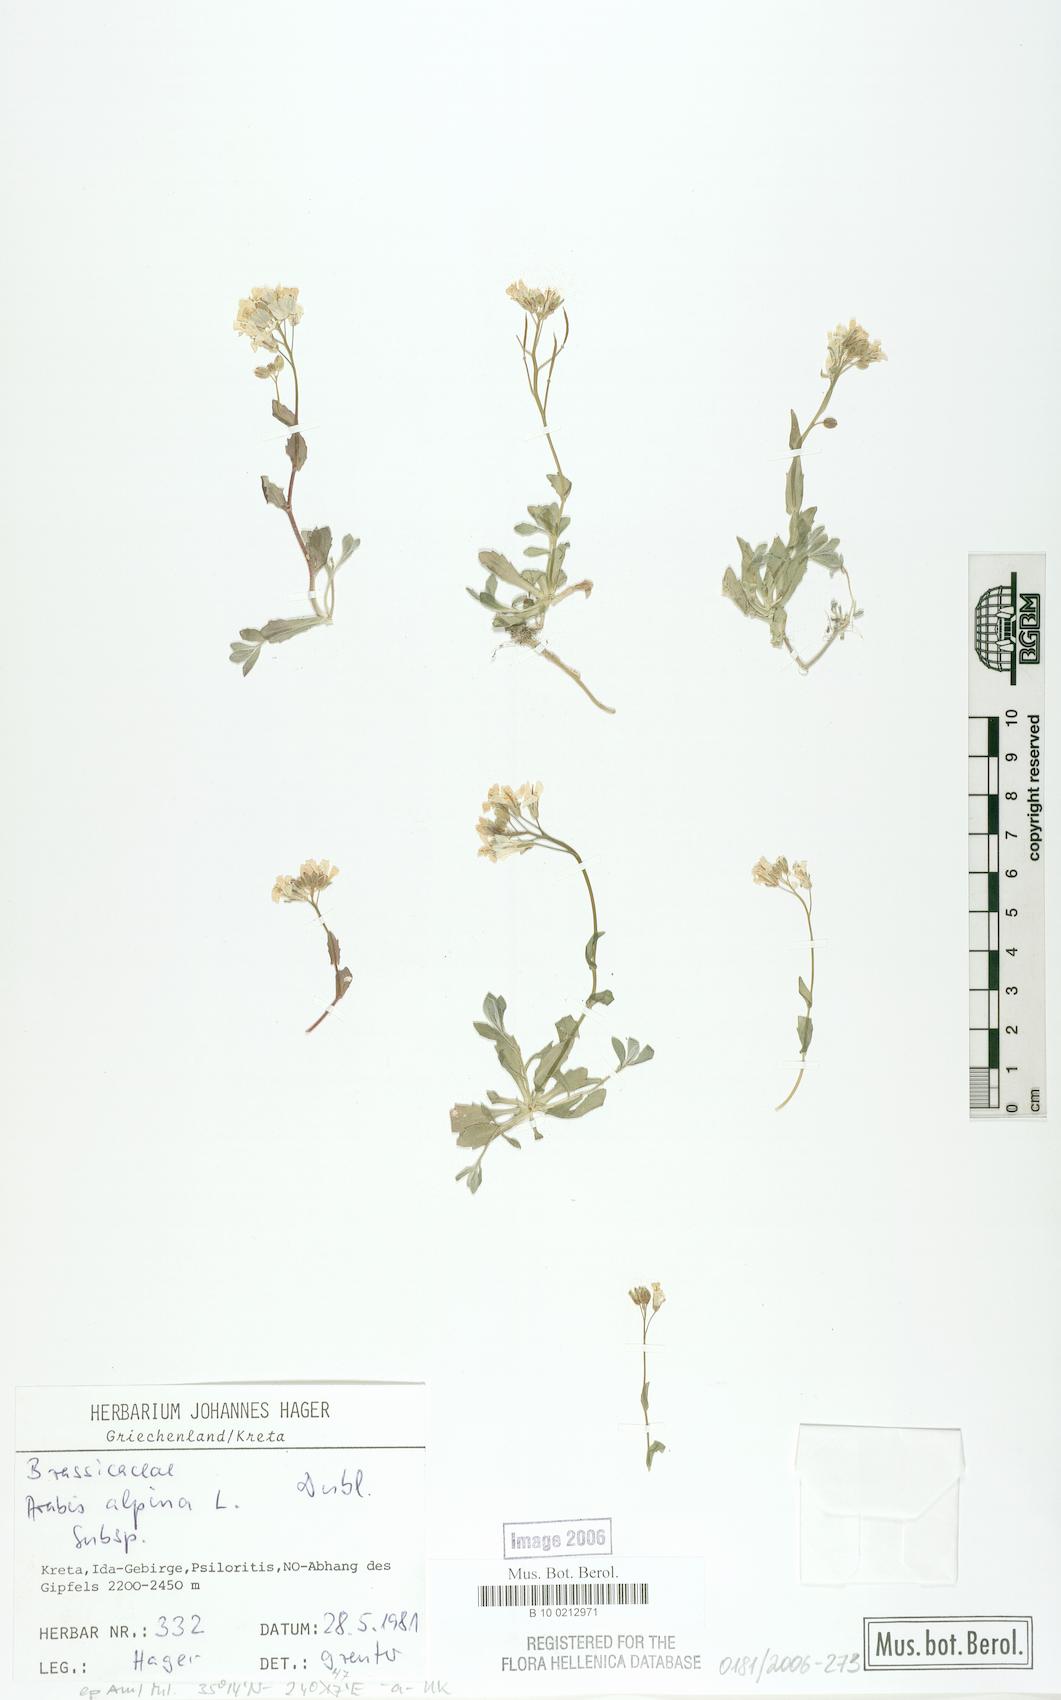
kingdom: Plantae
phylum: Tracheophyta
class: Magnoliopsida
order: Brassicales
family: Brassicaceae
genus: Arabis
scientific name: Arabis alpina
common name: Alpine rock-cress
